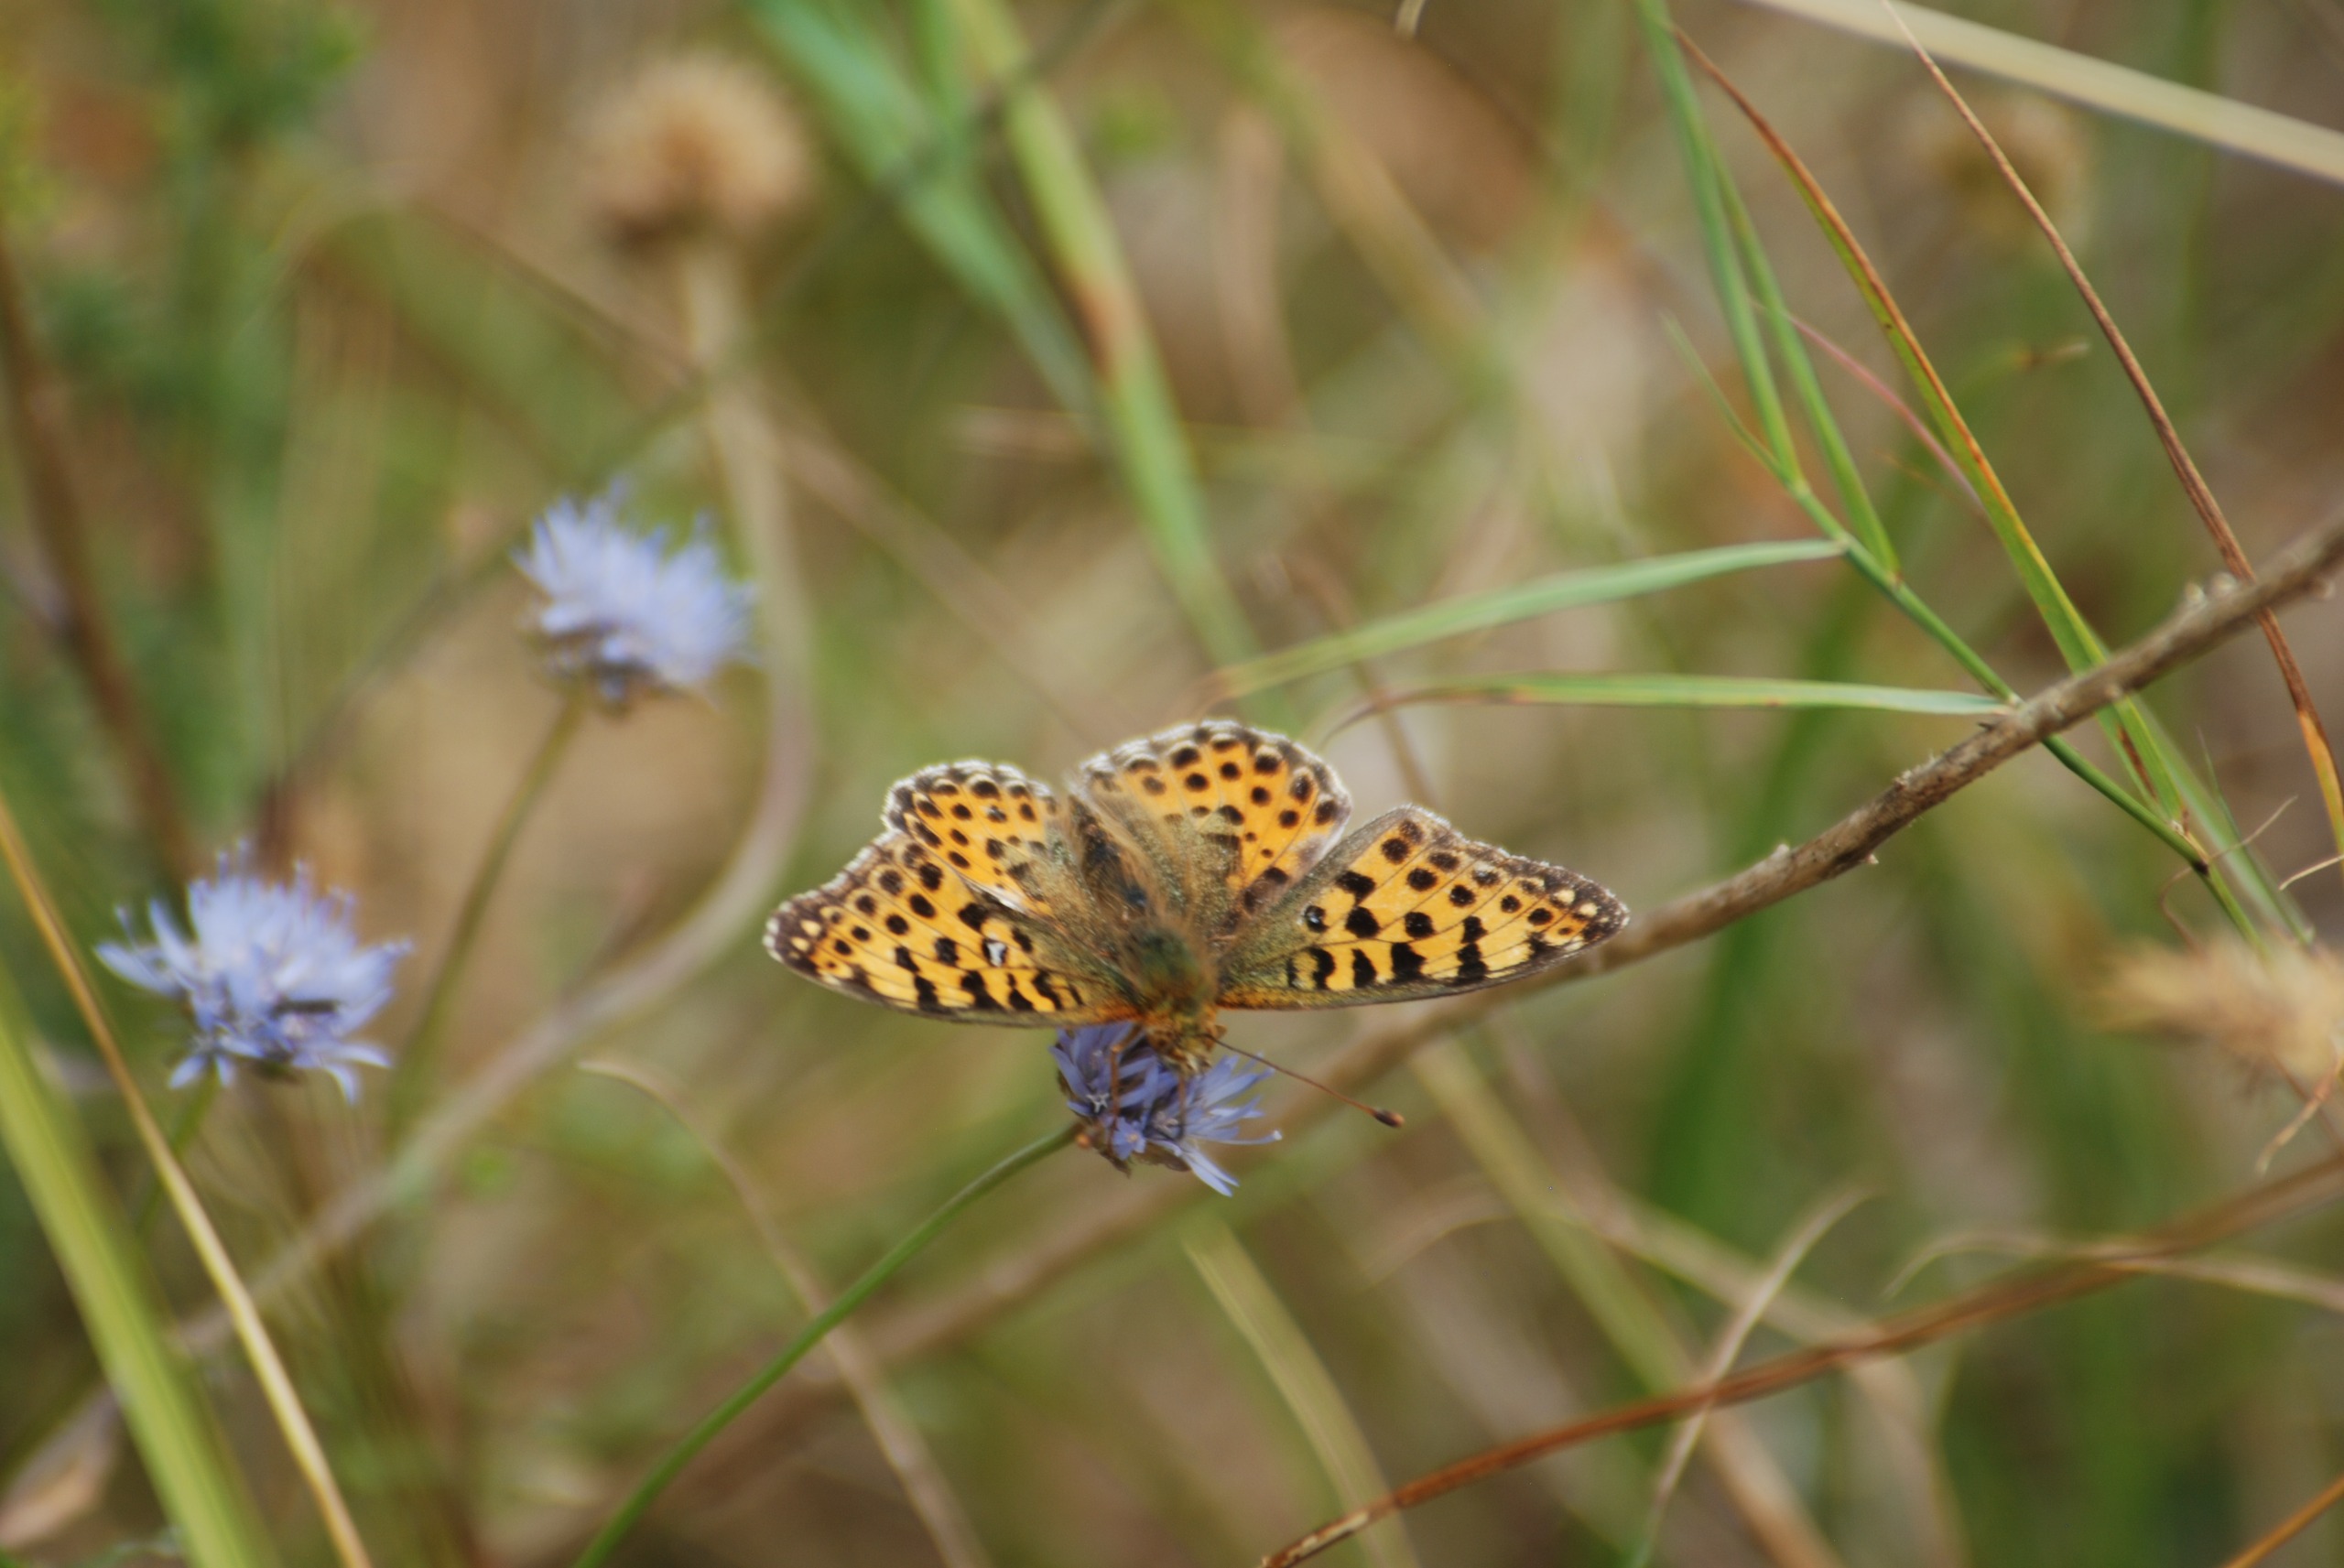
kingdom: Animalia
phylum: Arthropoda
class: Insecta
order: Lepidoptera
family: Nymphalidae
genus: Issoria
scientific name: Issoria lathonia
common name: Storplettet perlemorsommerfugl
